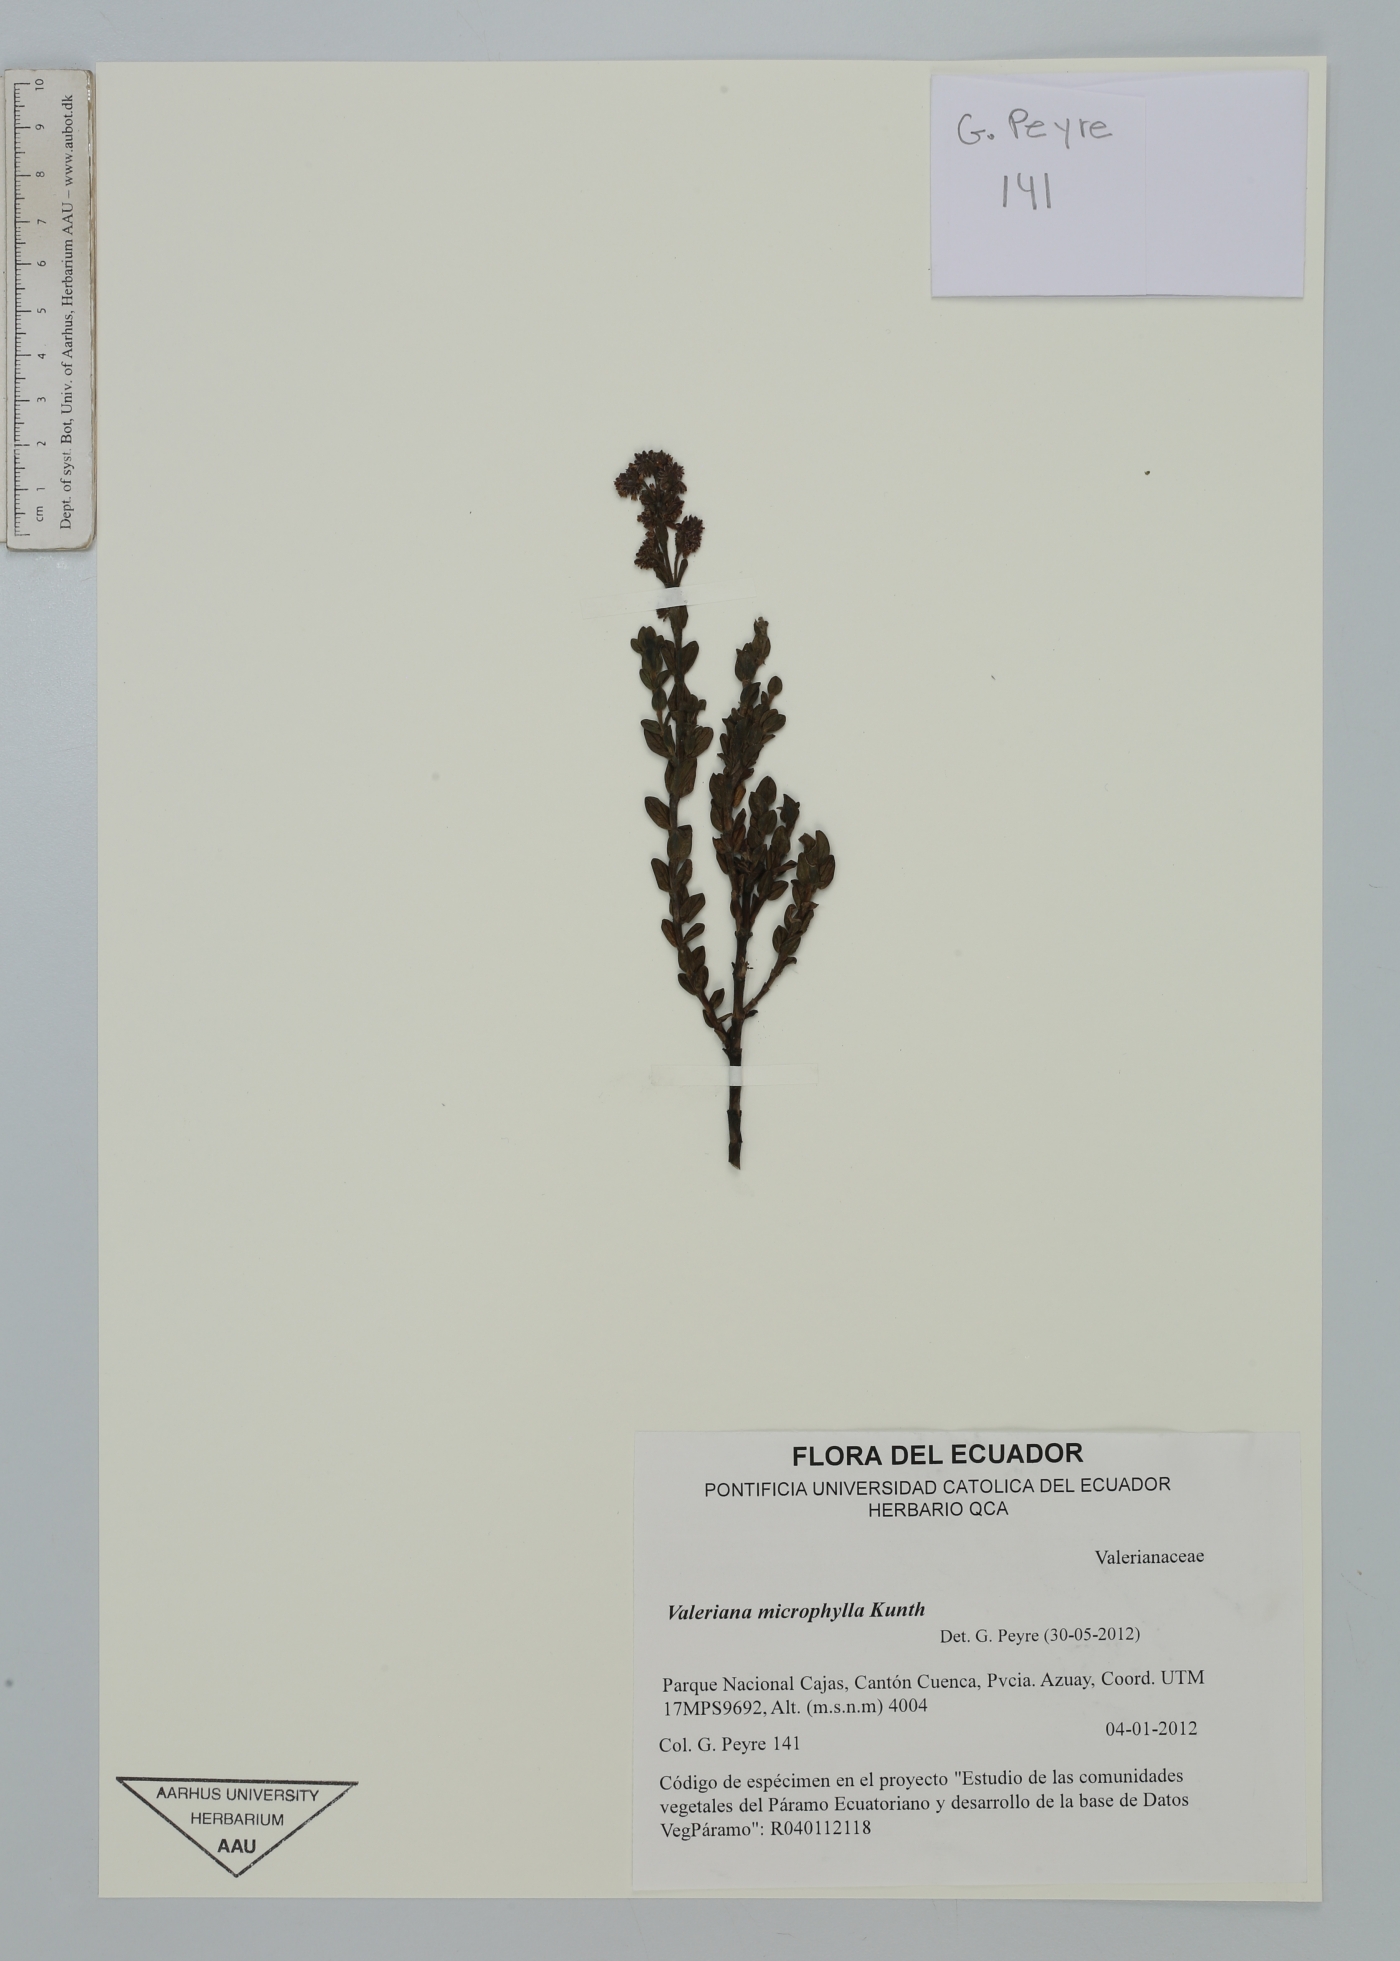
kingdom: Plantae
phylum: Tracheophyta
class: Magnoliopsida
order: Dipsacales
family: Caprifoliaceae
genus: Valeriana
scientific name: Valeriana microphylla
